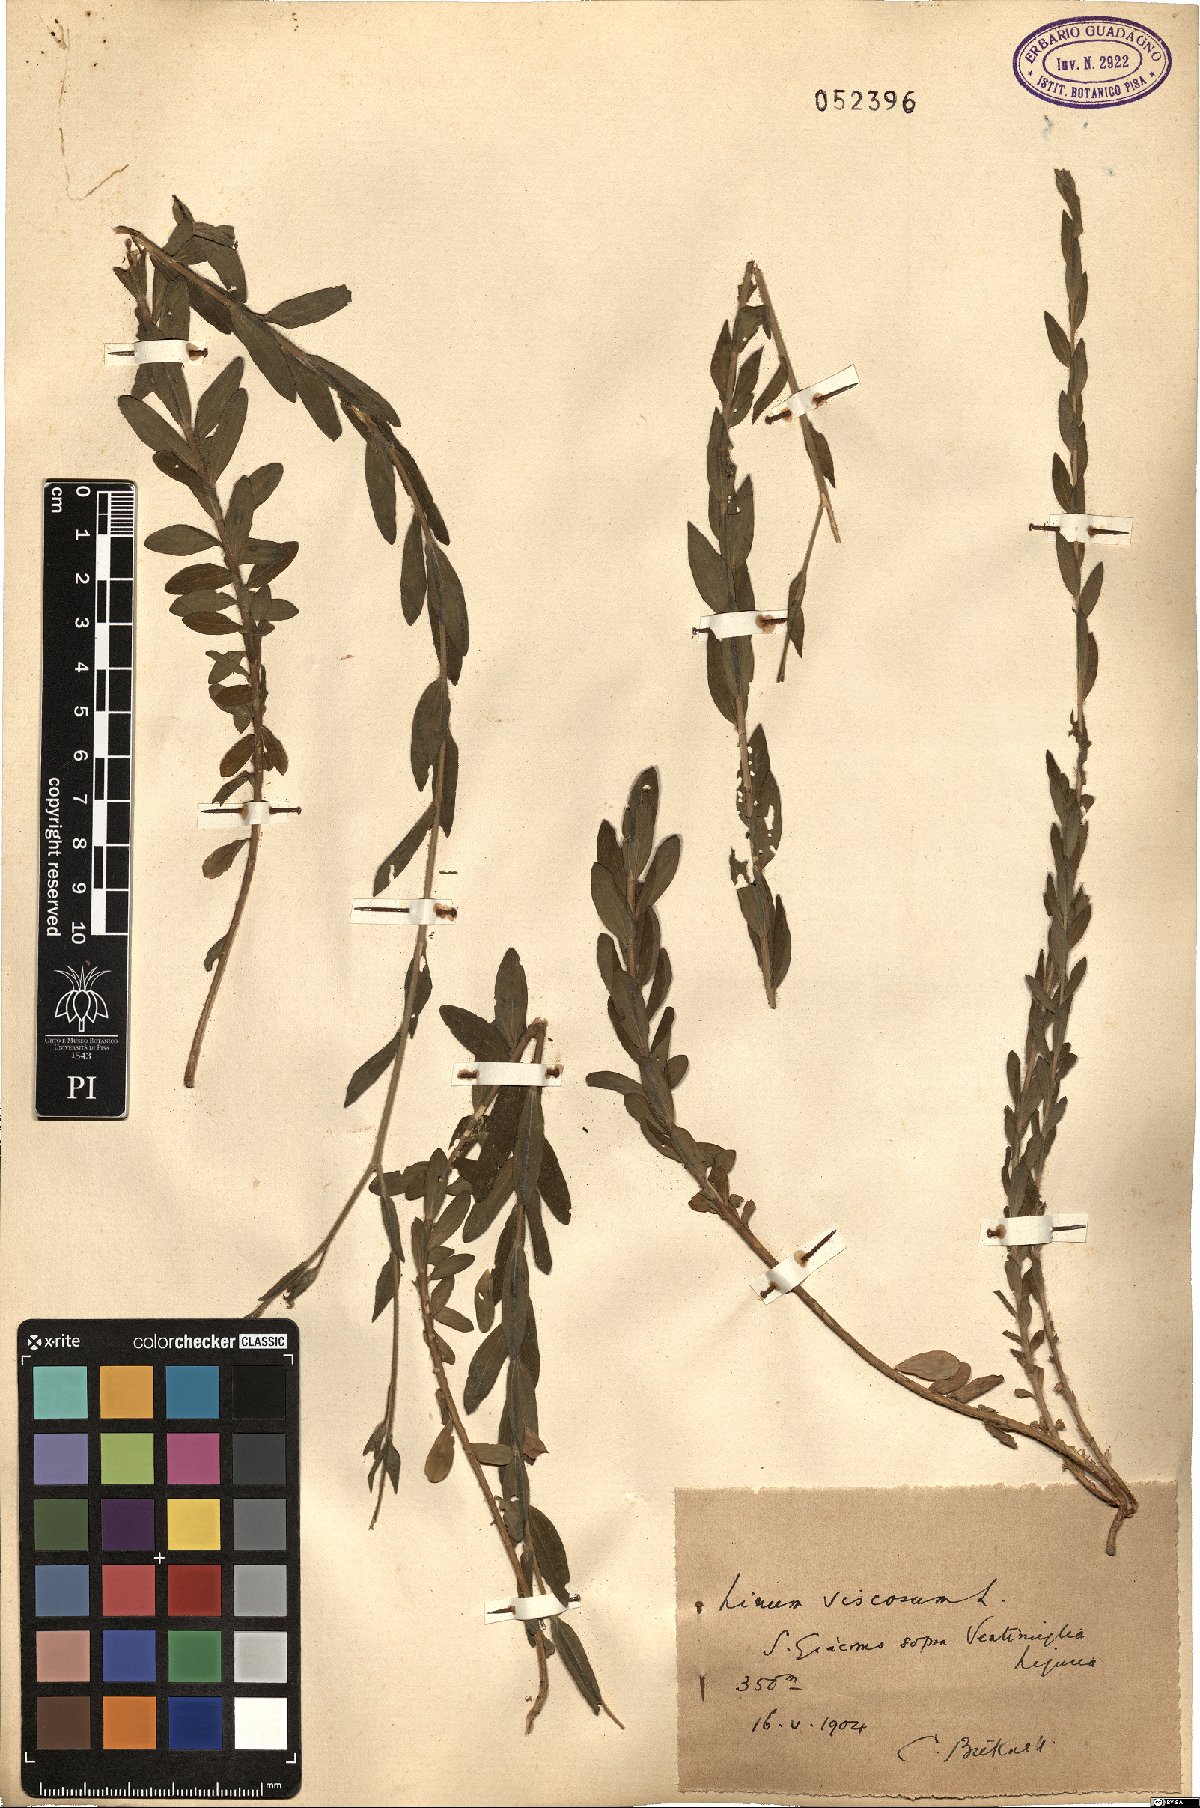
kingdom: Plantae
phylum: Tracheophyta
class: Magnoliopsida
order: Malpighiales
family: Linaceae
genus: Linum
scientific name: Linum viscosum
